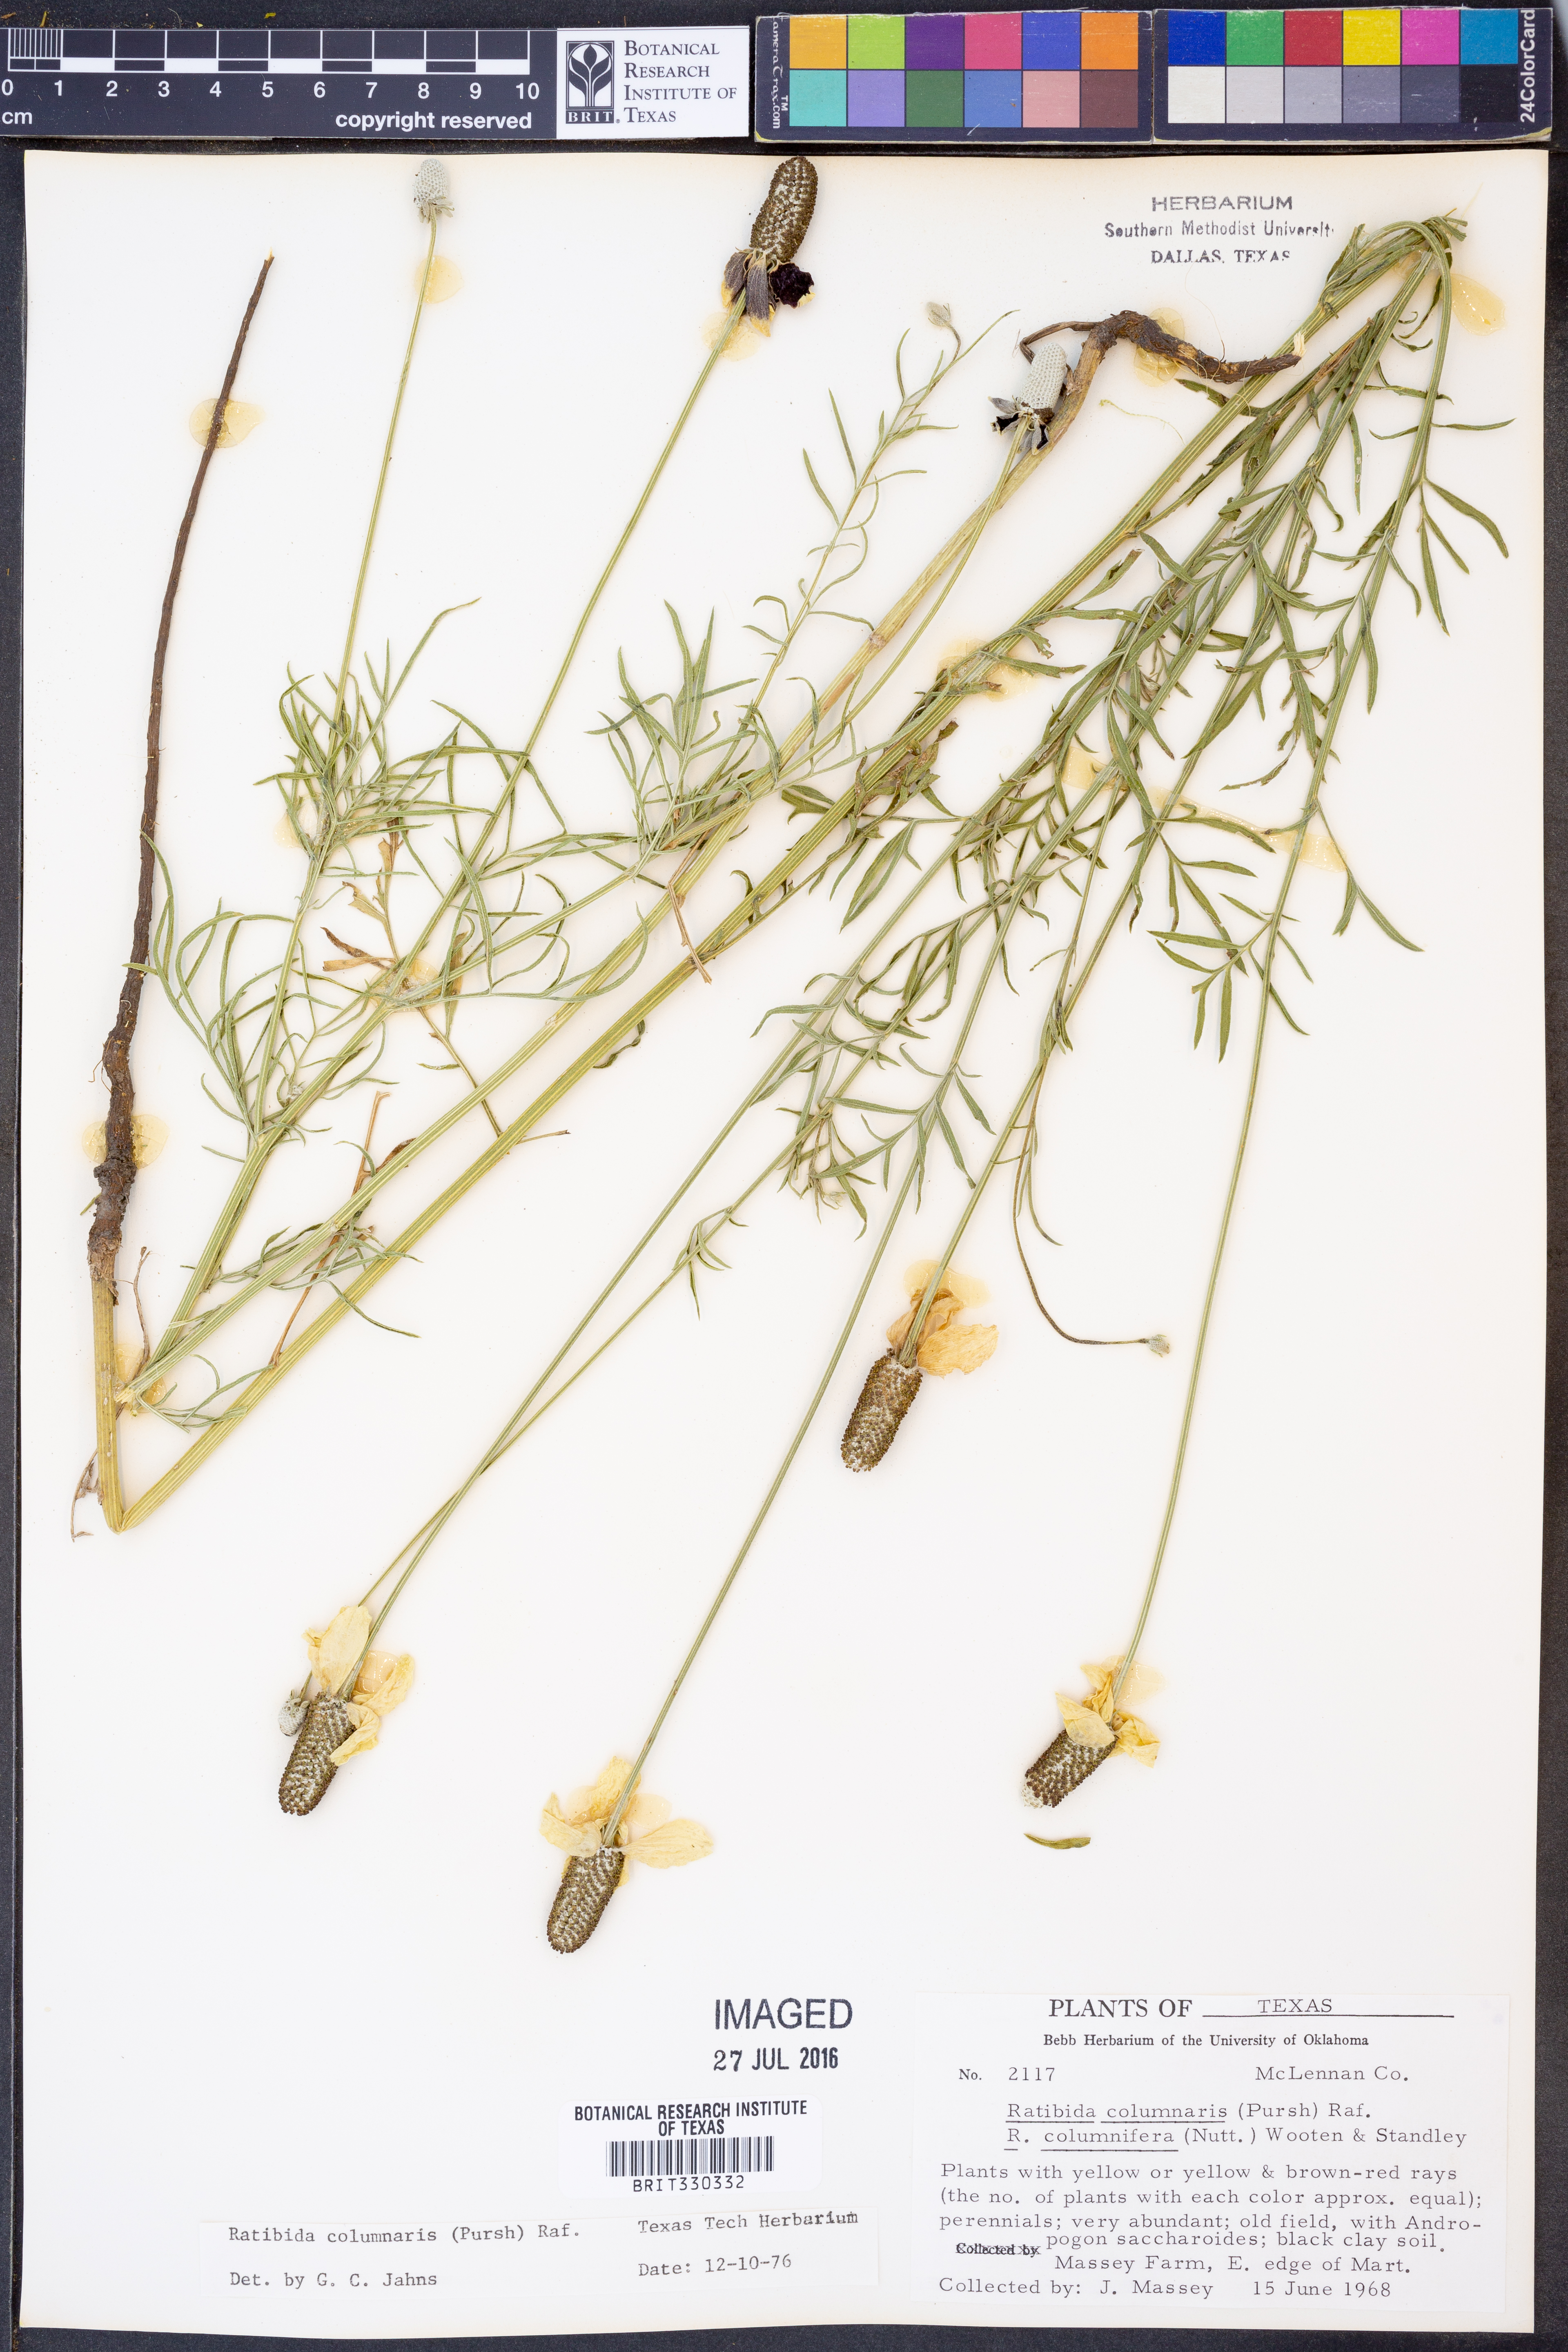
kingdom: Plantae
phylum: Tracheophyta
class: Magnoliopsida
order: Asterales
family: Asteraceae
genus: Ratibida
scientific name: Ratibida columnifera
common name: Prairie coneflower
